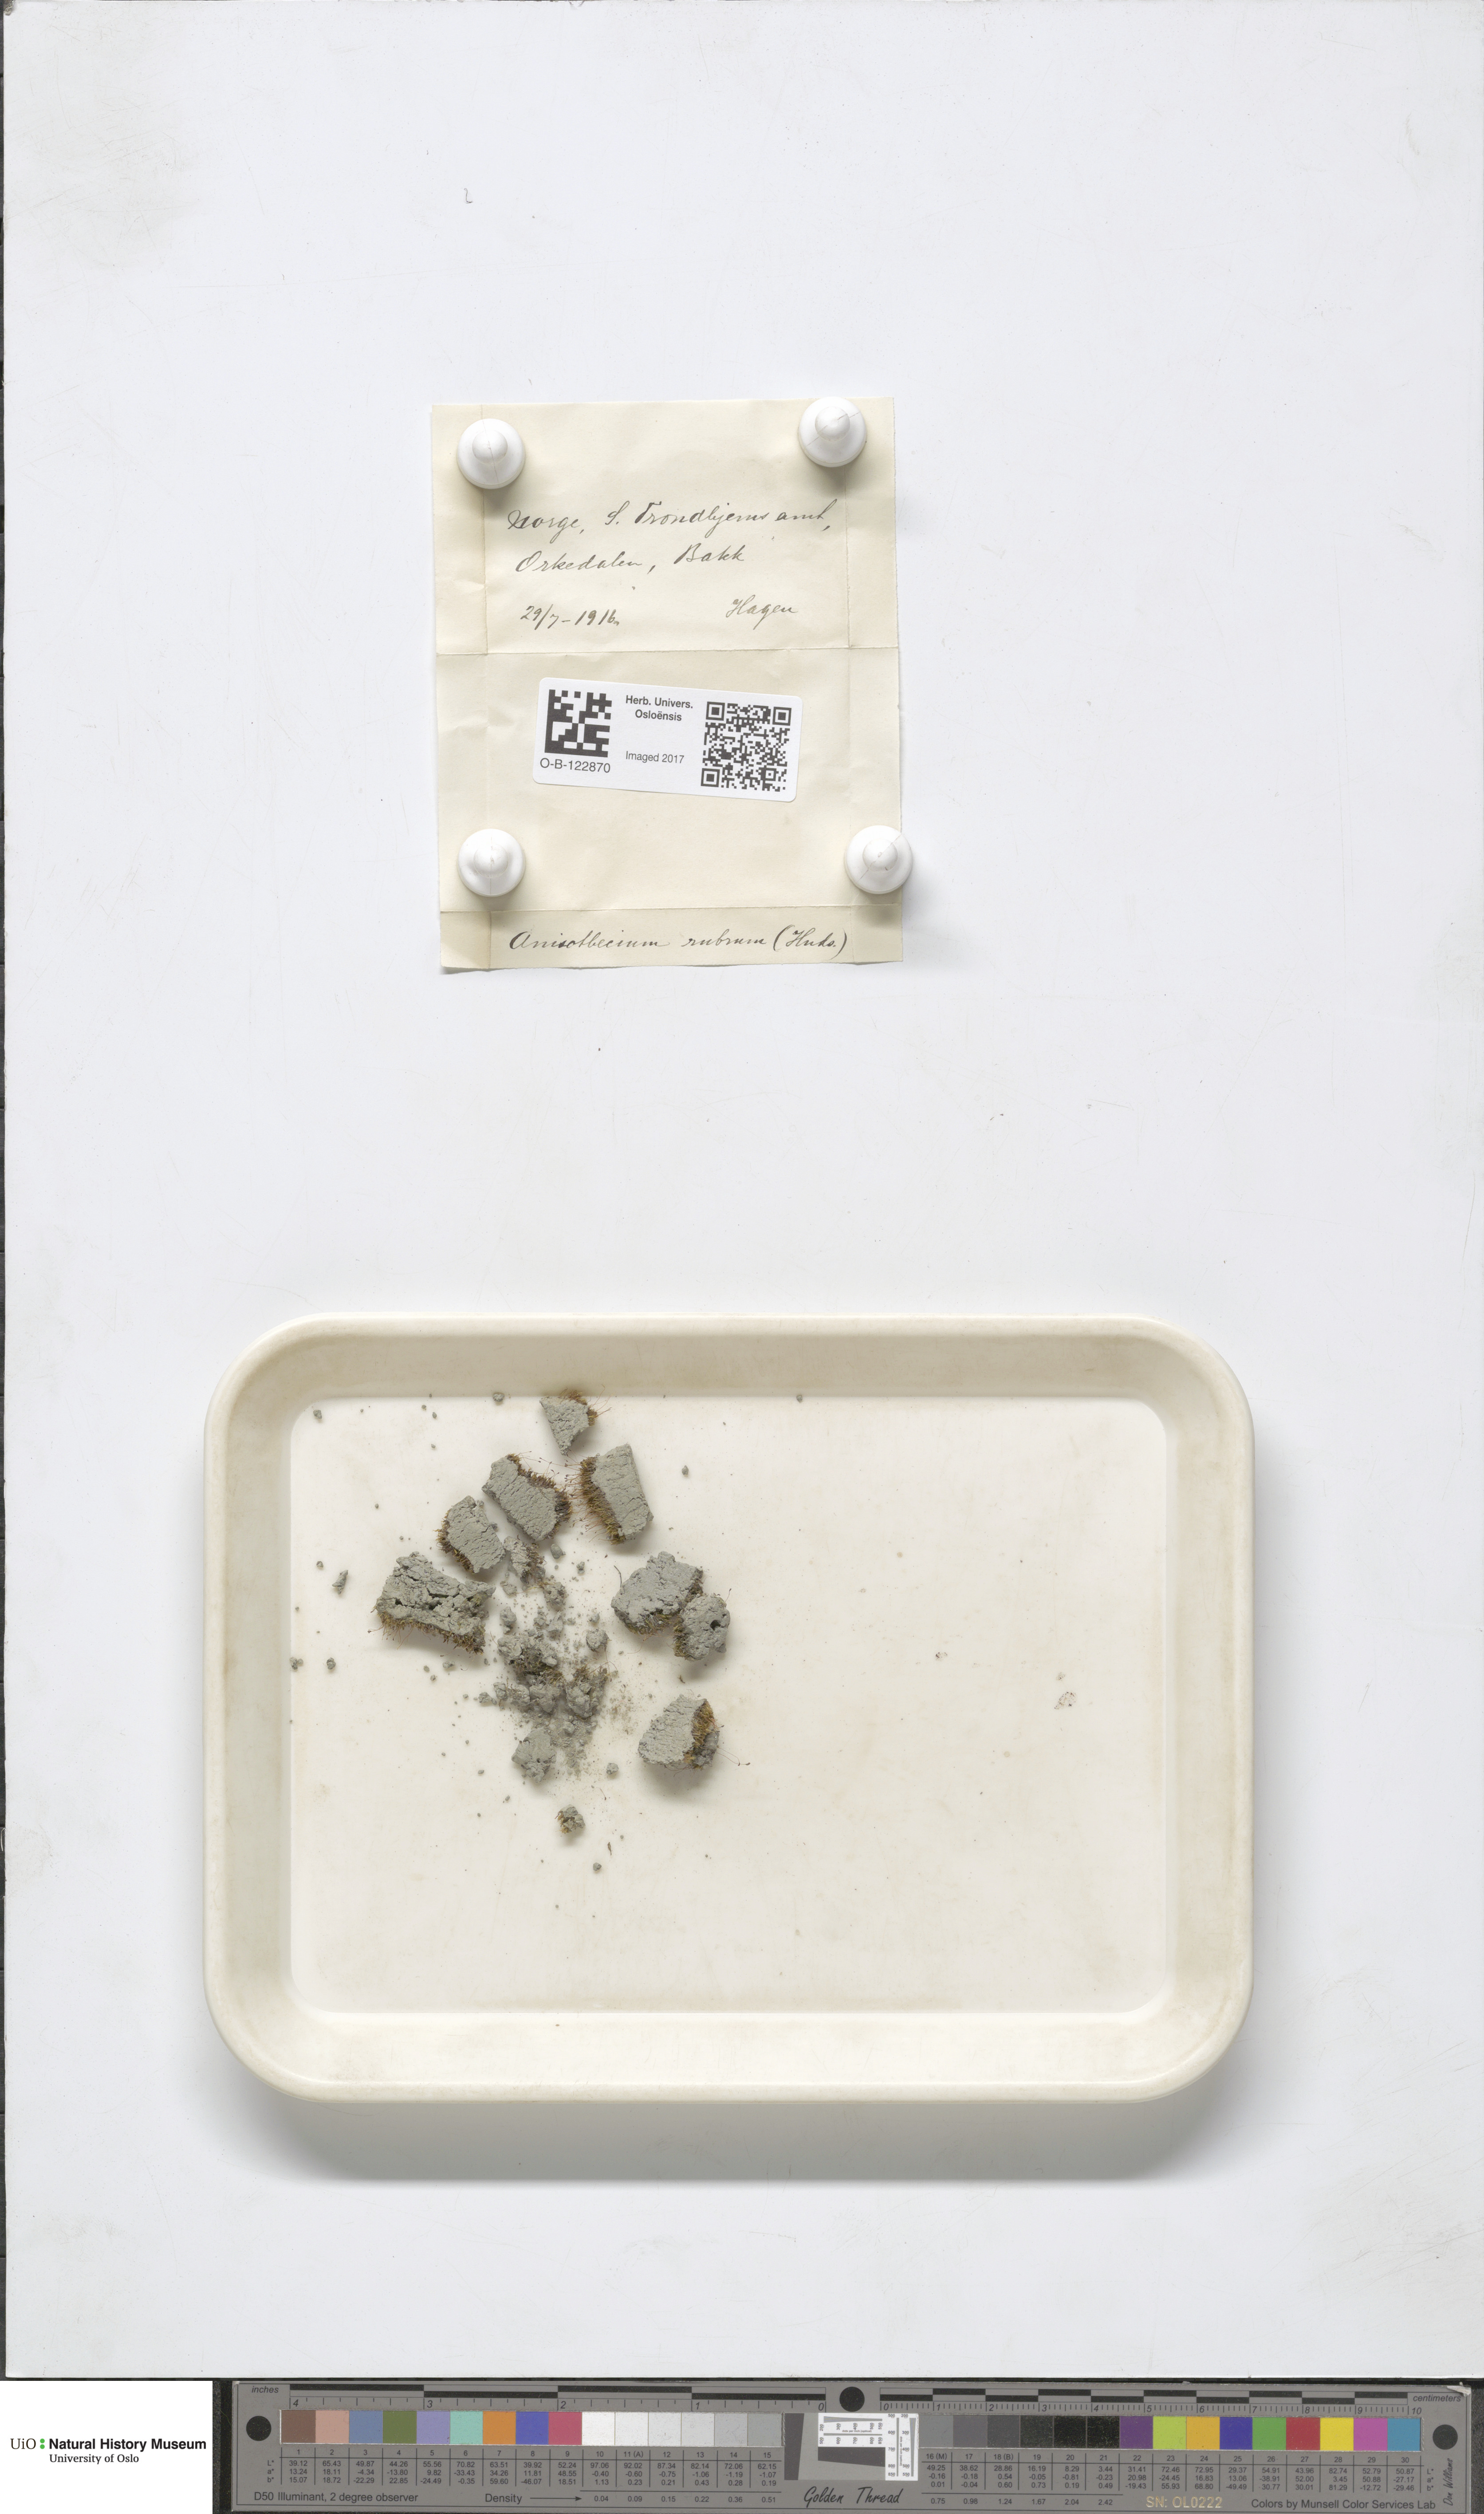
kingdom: Plantae
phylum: Bryophyta
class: Bryopsida
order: Dicranales
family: Dicranellaceae
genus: Dicranella
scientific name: Dicranella varia
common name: Variable forklet moss
